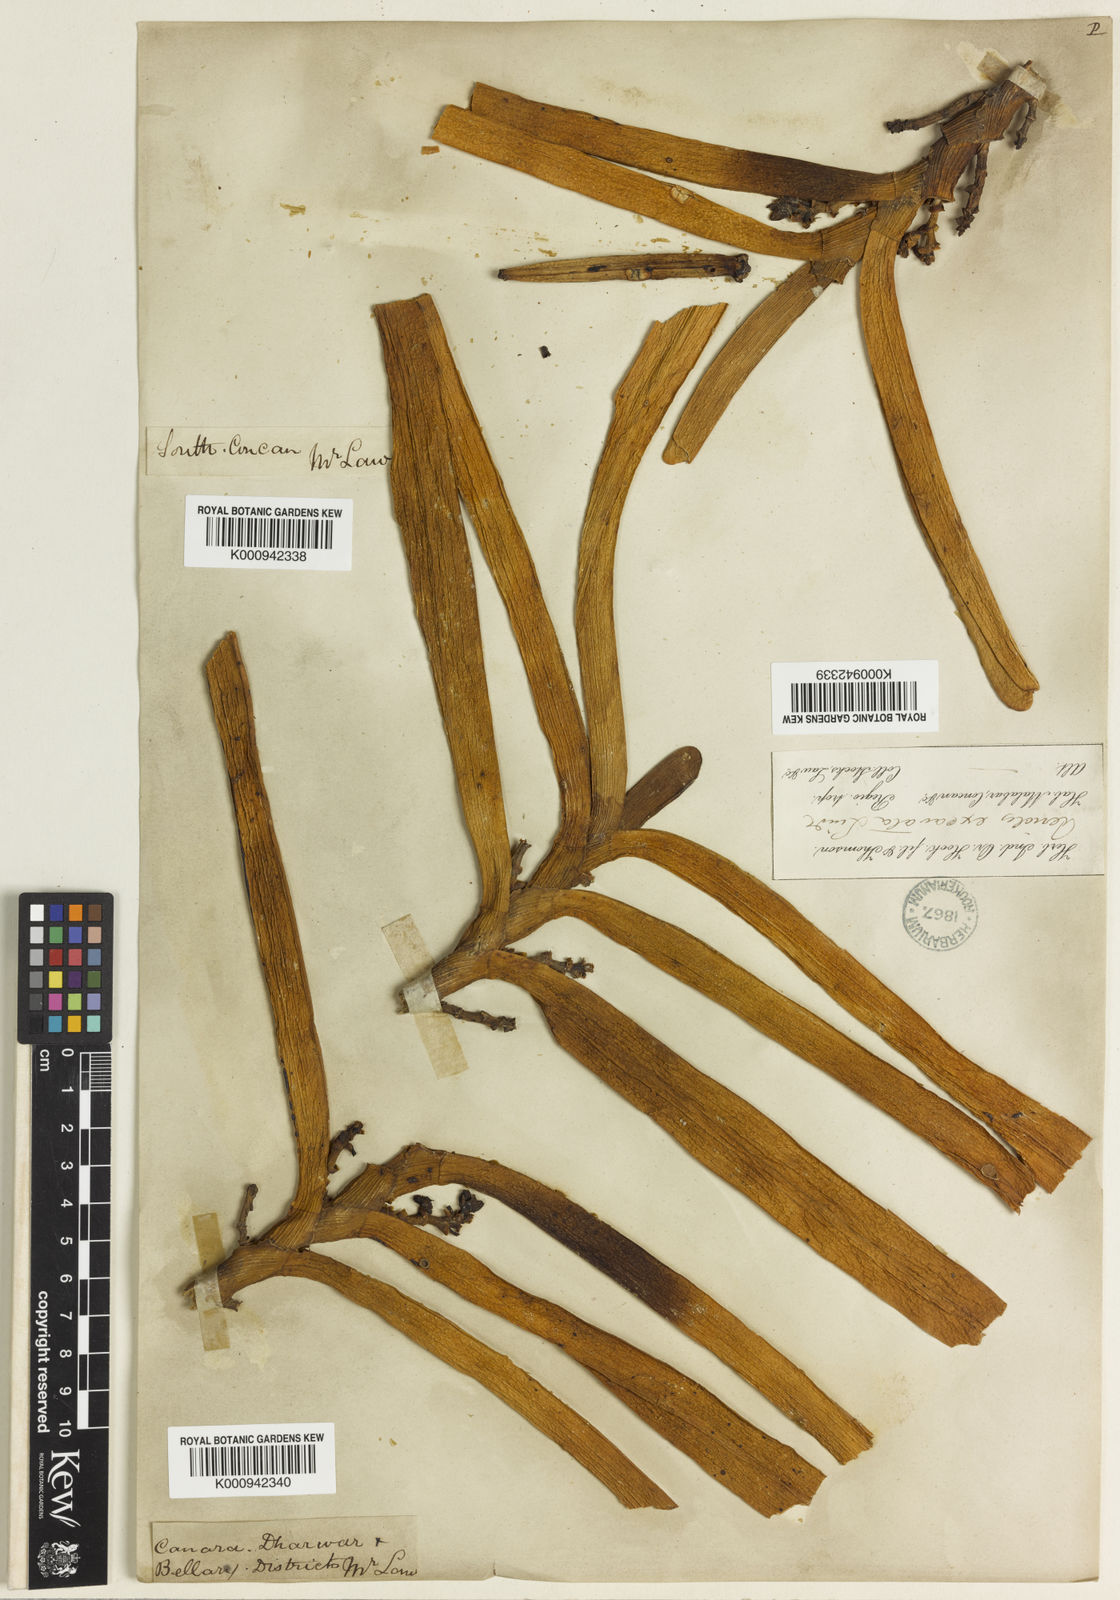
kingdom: Plantae
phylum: Tracheophyta
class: Liliopsida
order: Asparagales
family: Orchidaceae
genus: Acampe
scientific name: Acampe praemorsa
